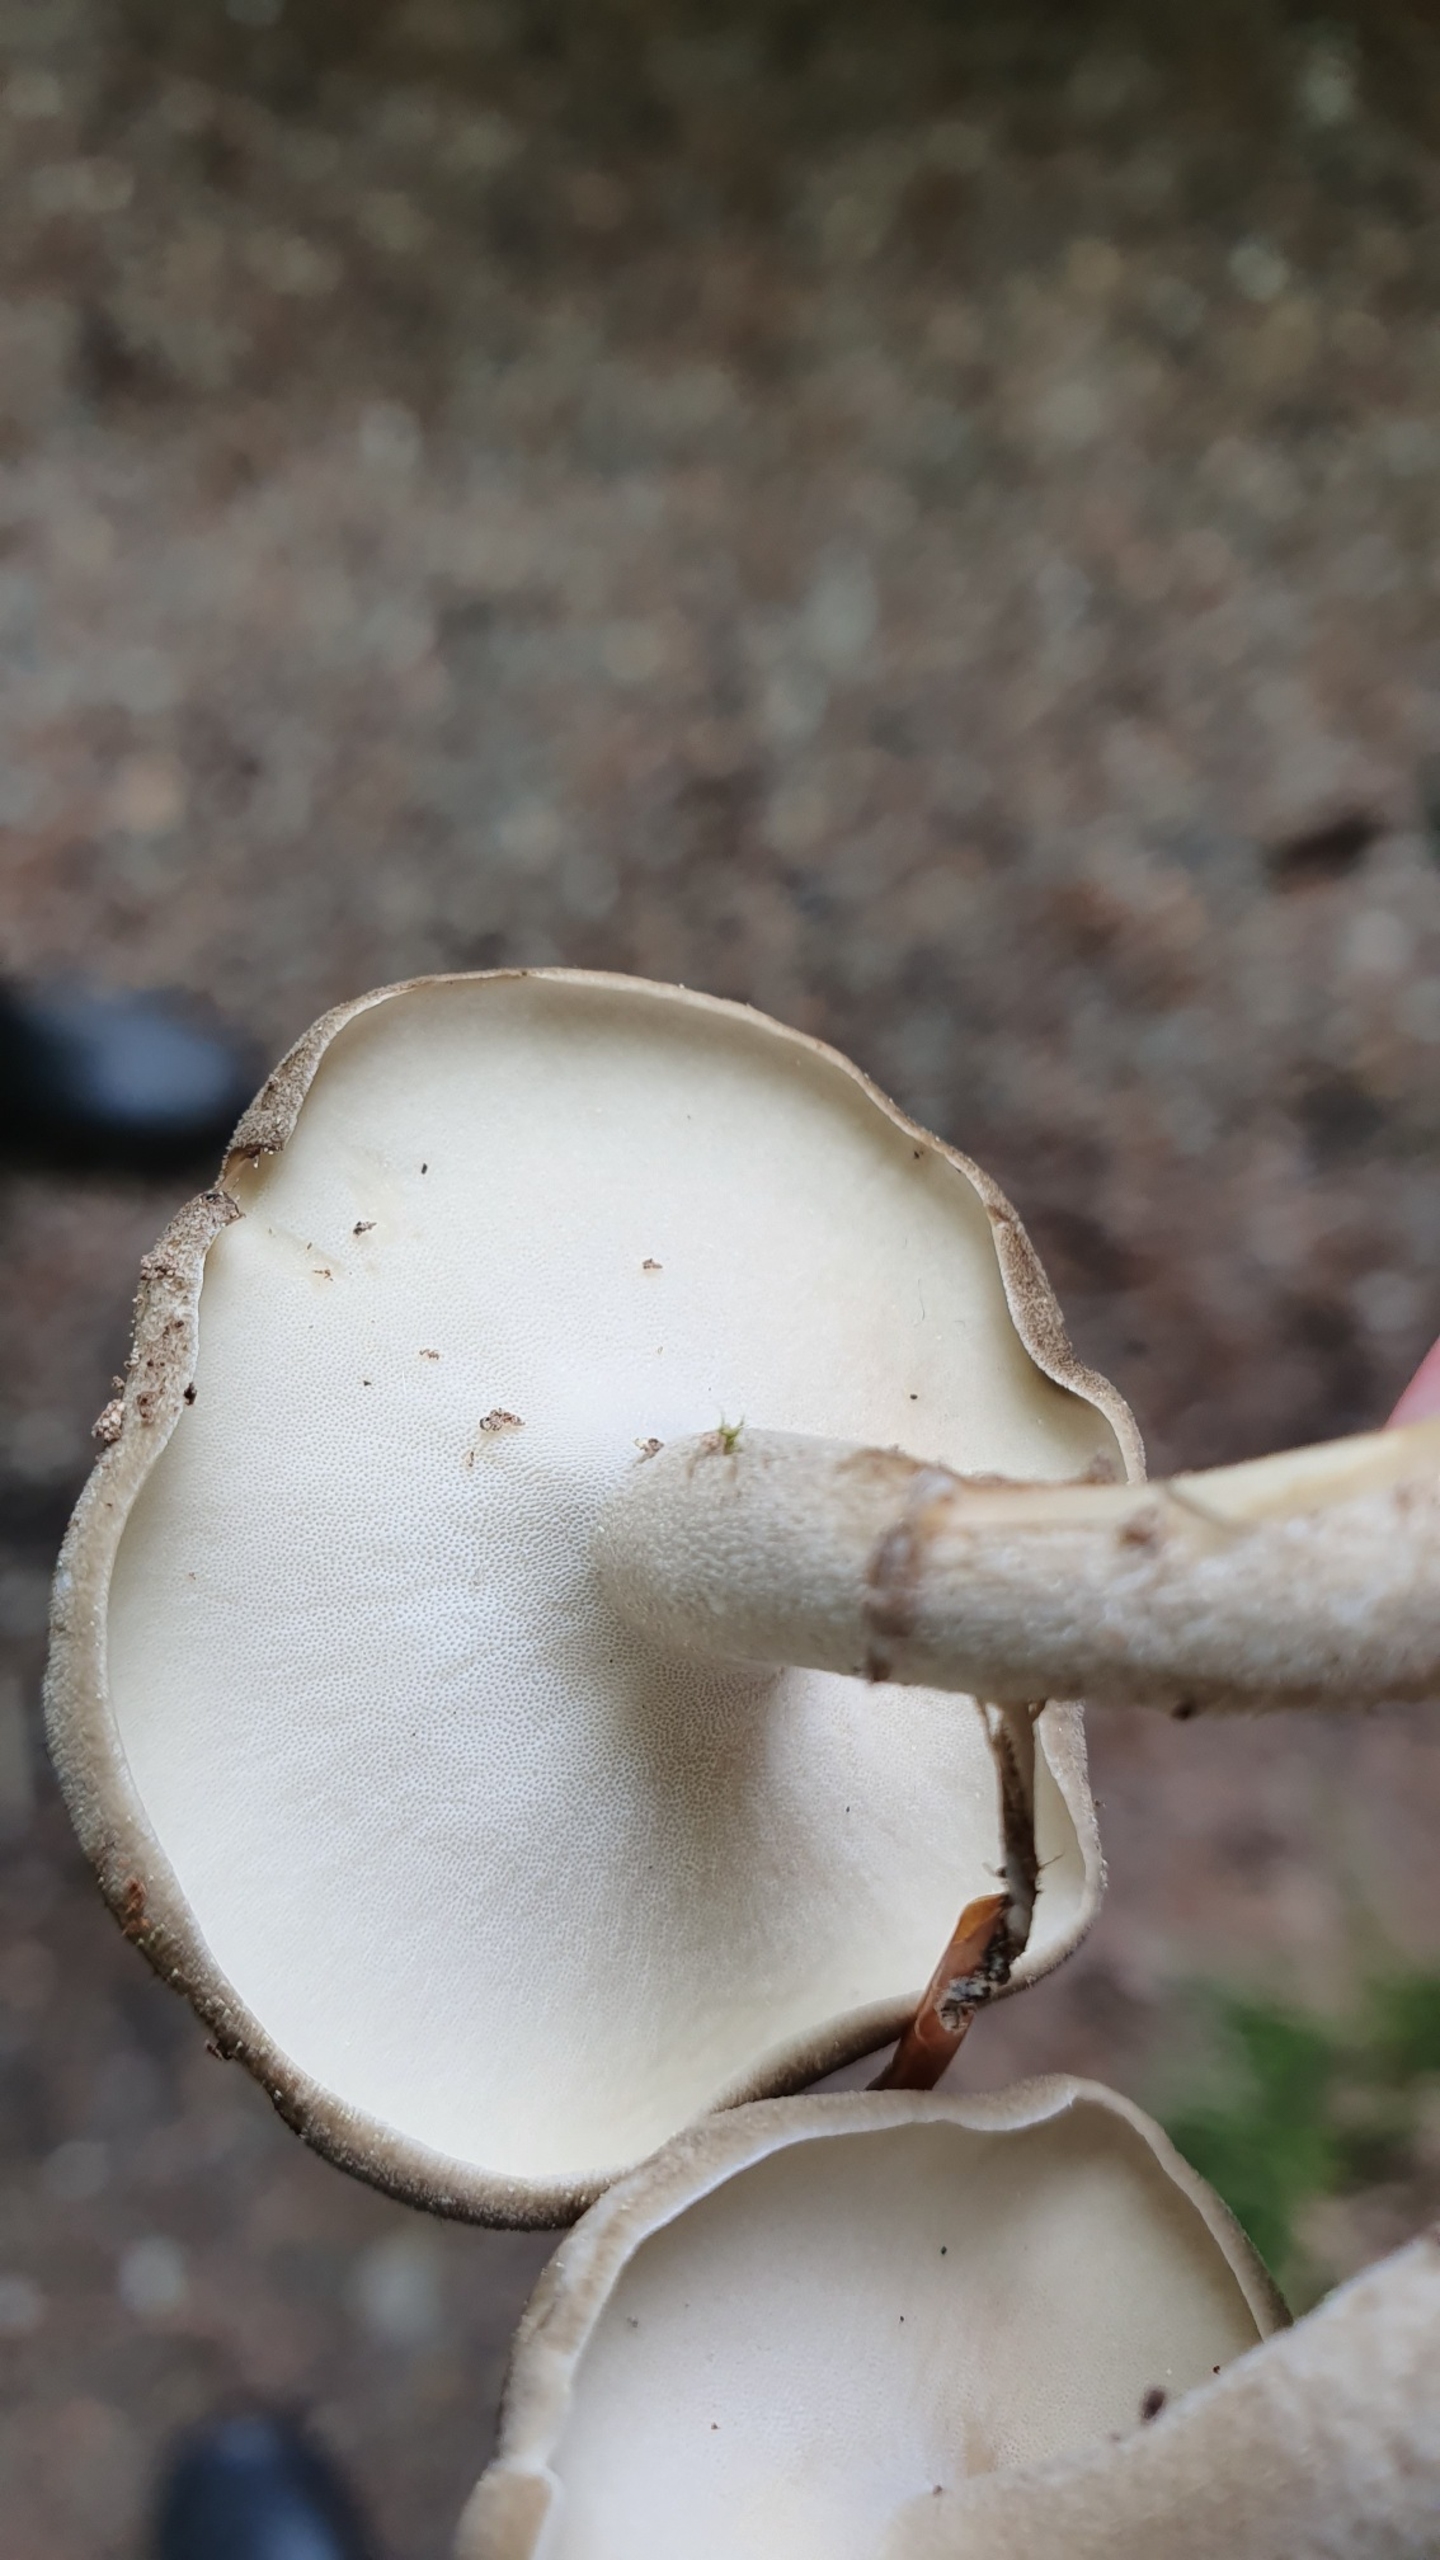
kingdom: Fungi
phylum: Basidiomycota
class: Agaricomycetes
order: Polyporales
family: Polyporaceae
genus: Lentinus
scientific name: Lentinus substrictus
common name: Forårs-stilkporesvamp
